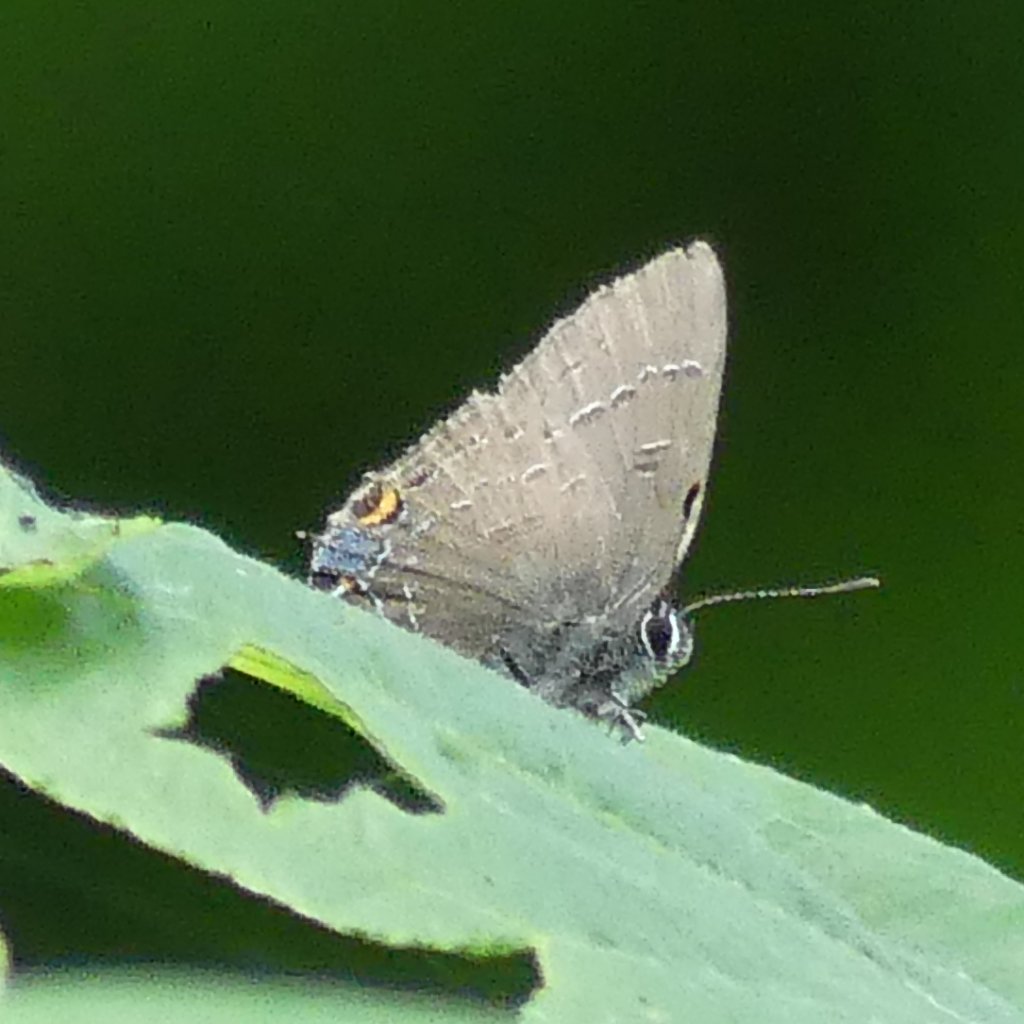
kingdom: Animalia
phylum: Arthropoda
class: Insecta
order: Lepidoptera
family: Lycaenidae
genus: Satyrium
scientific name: Satyrium calanus
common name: Banded Hairstreak
